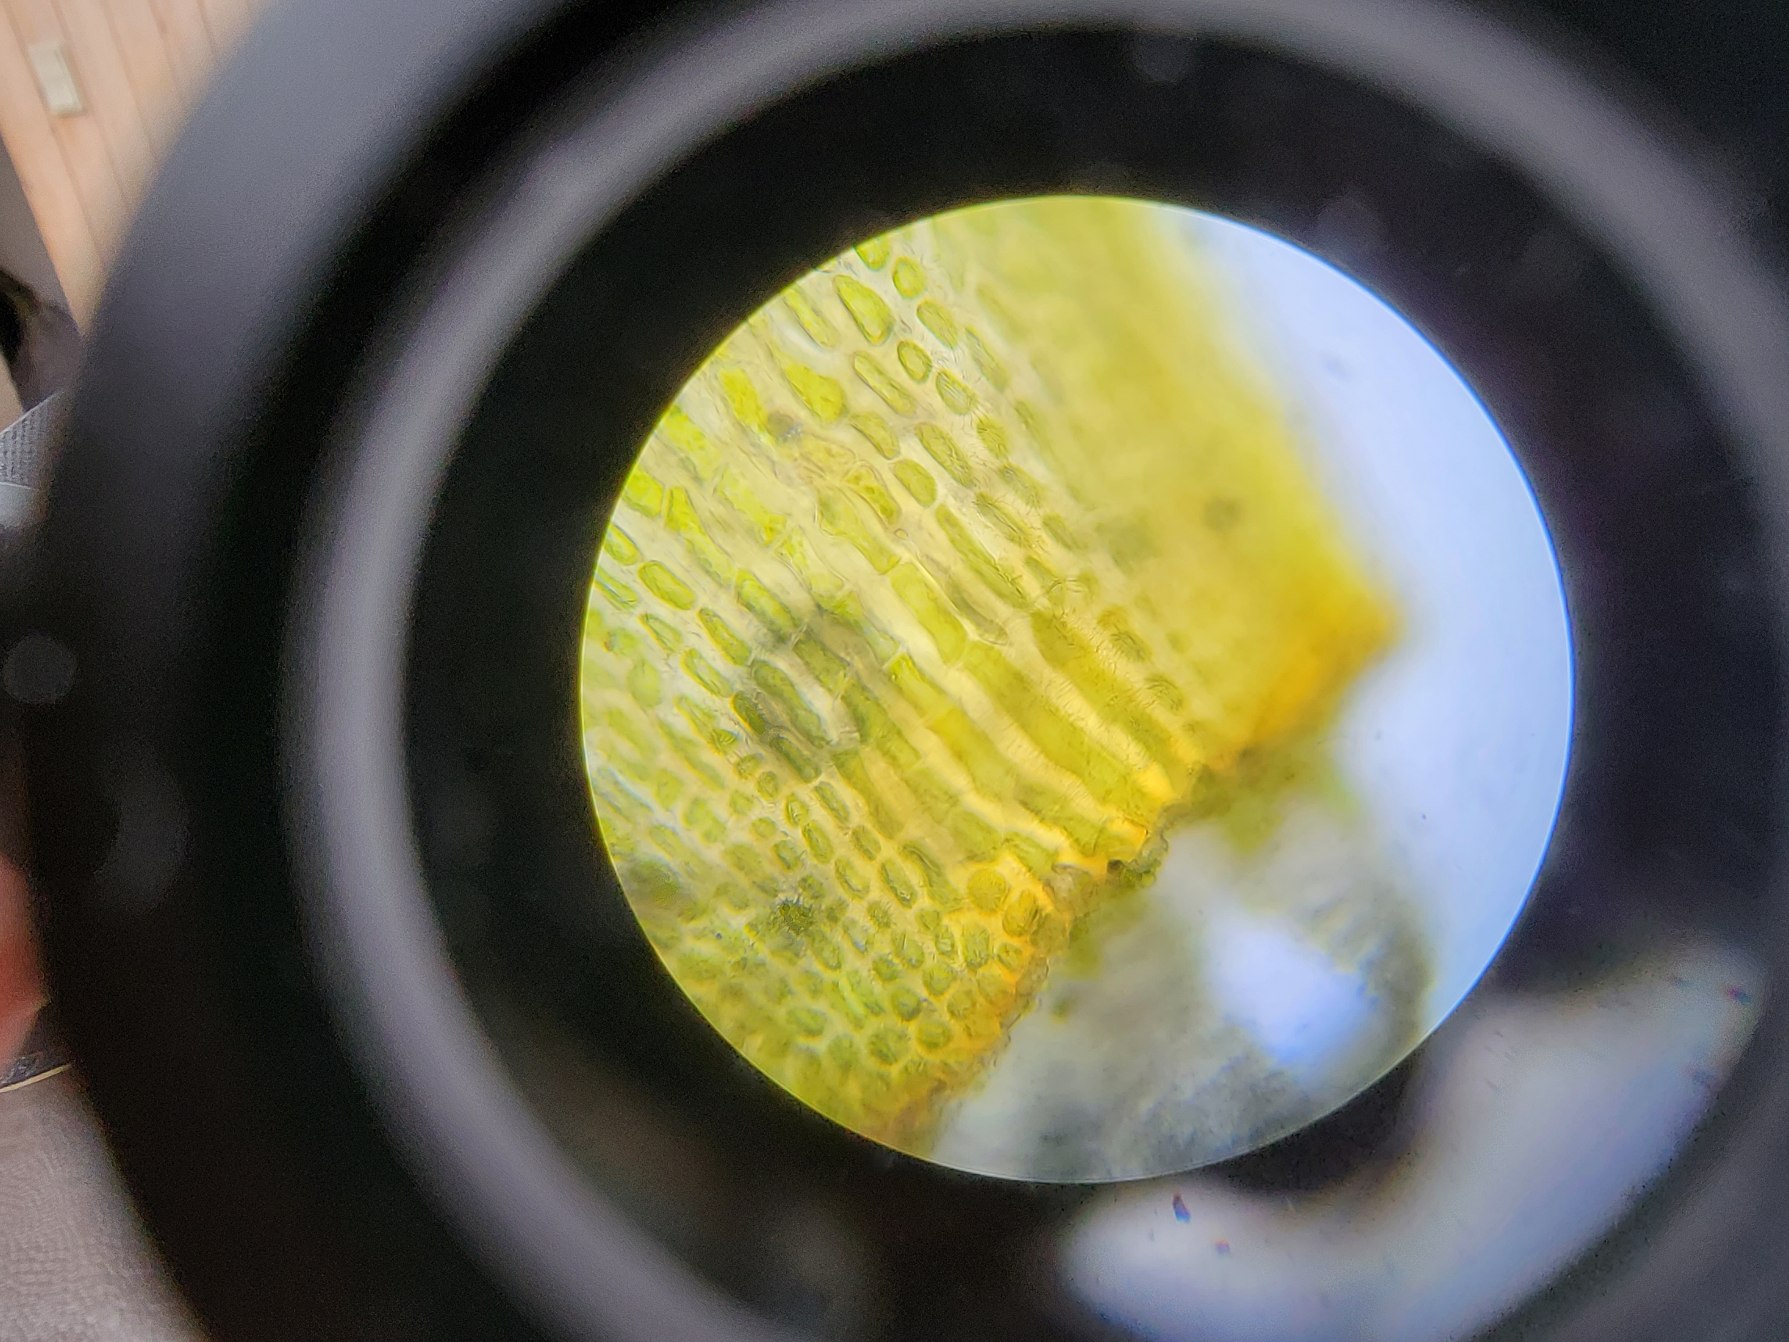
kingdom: Plantae
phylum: Bryophyta
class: Bryopsida
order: Orthotrichales
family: Orthotrichaceae
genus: Ulota
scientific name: Ulota bruchii
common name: Bruchs låddenhætte
